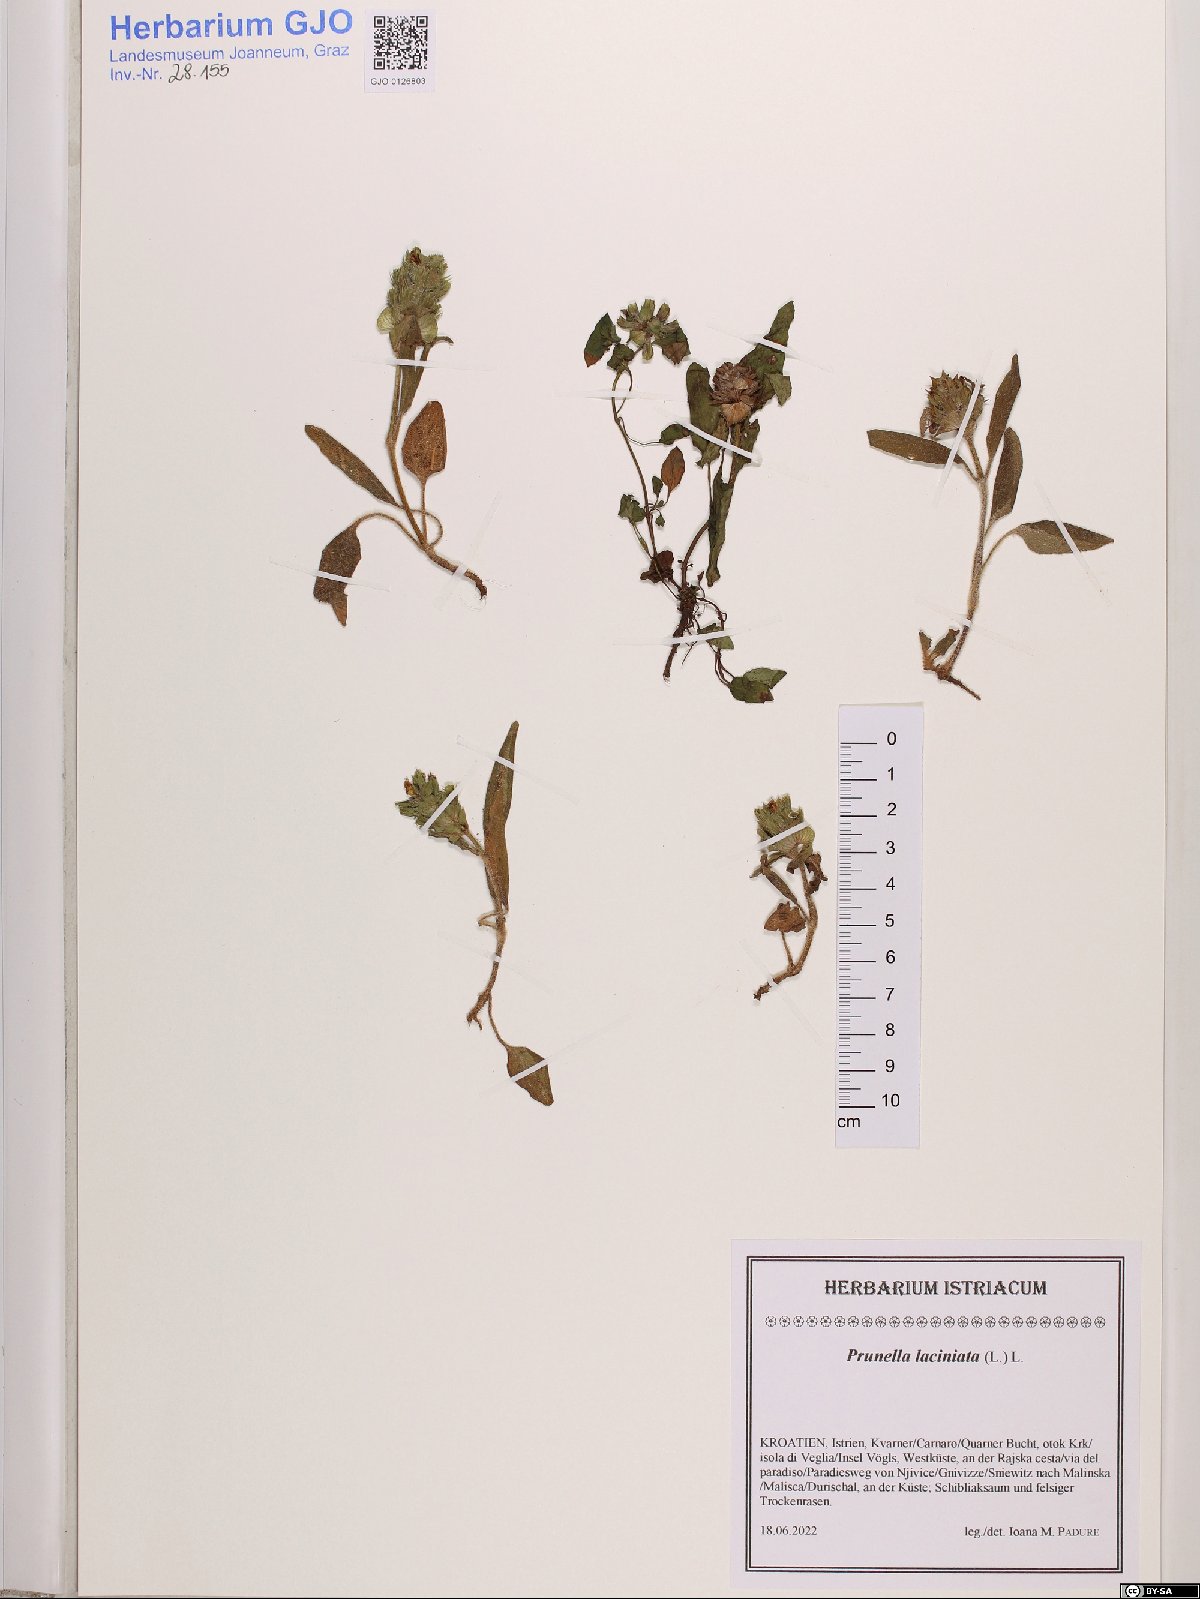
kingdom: Plantae
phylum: Tracheophyta
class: Magnoliopsida
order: Lamiales
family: Lamiaceae
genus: Prunella
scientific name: Prunella laciniata
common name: Cut-leaved selfheal
